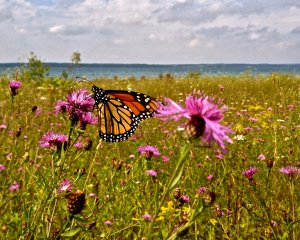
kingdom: Animalia
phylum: Arthropoda
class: Insecta
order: Lepidoptera
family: Nymphalidae
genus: Danaus
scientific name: Danaus plexippus
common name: Monarch
